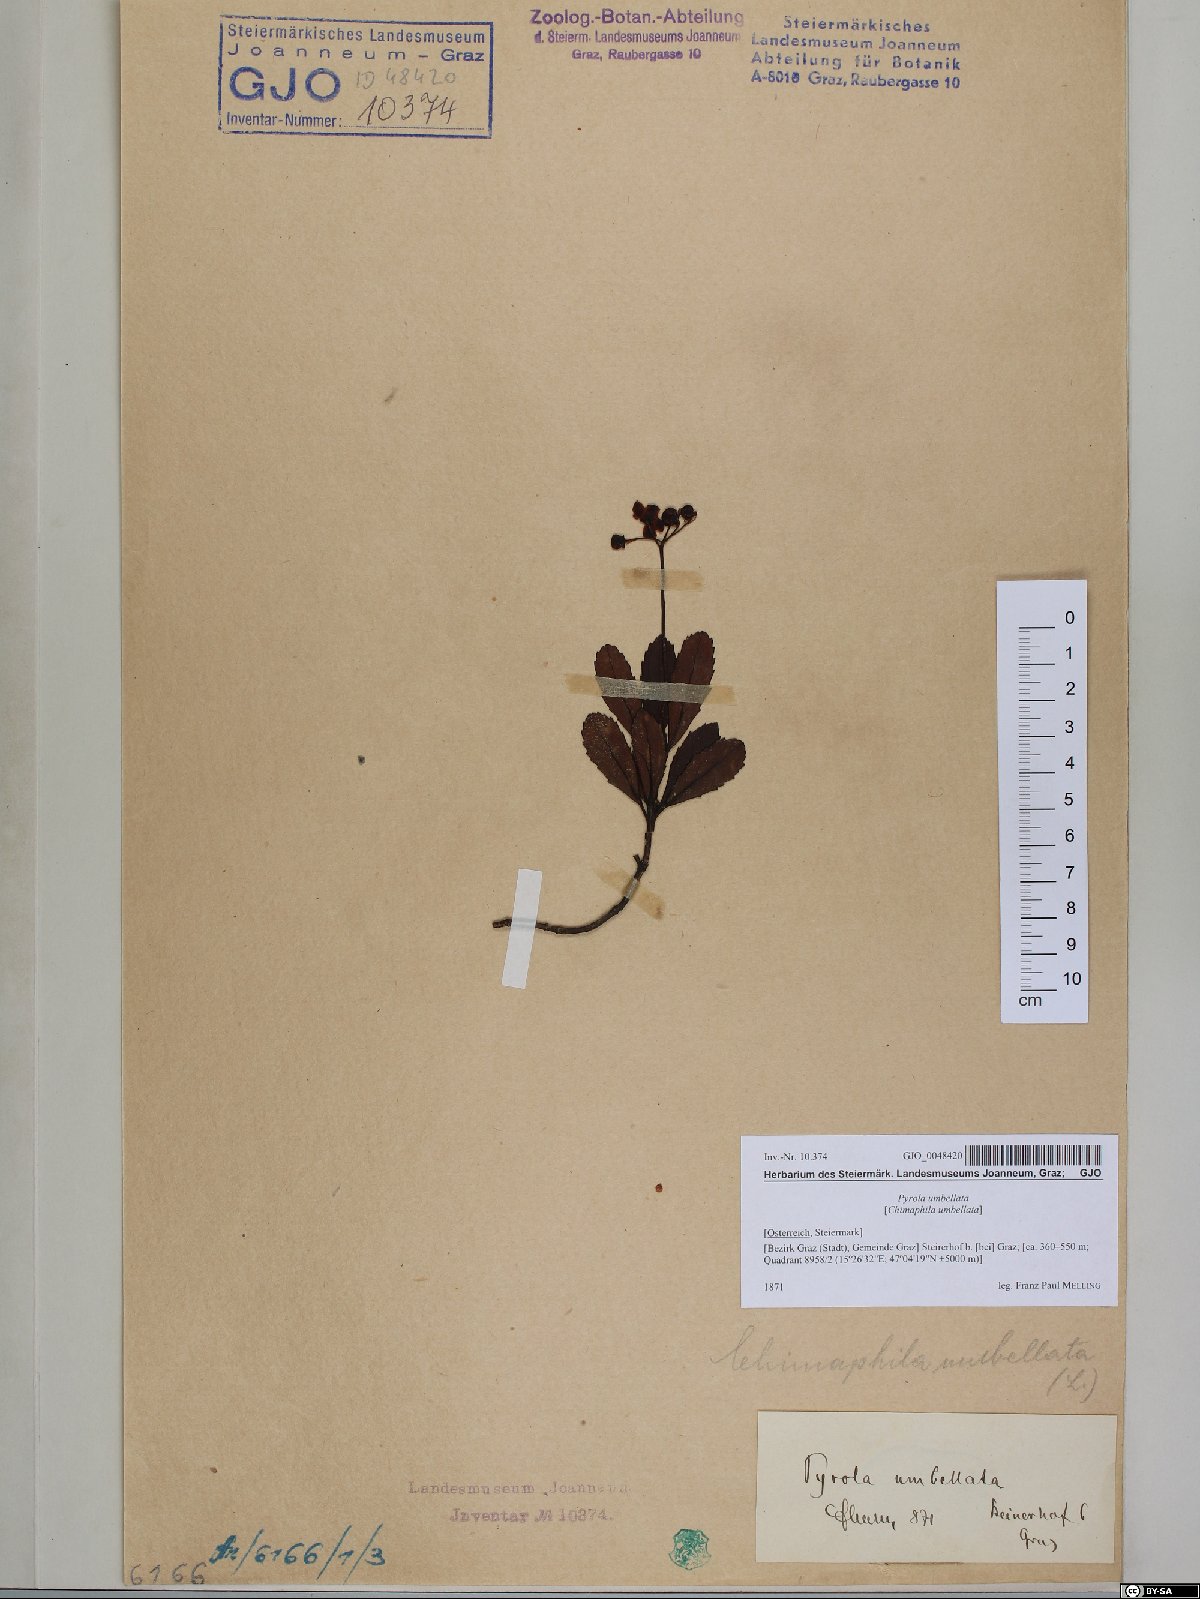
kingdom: Plantae
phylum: Tracheophyta
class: Magnoliopsida
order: Ericales
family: Ericaceae
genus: Chimaphila
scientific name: Chimaphila umbellata
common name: Pipsissewa
